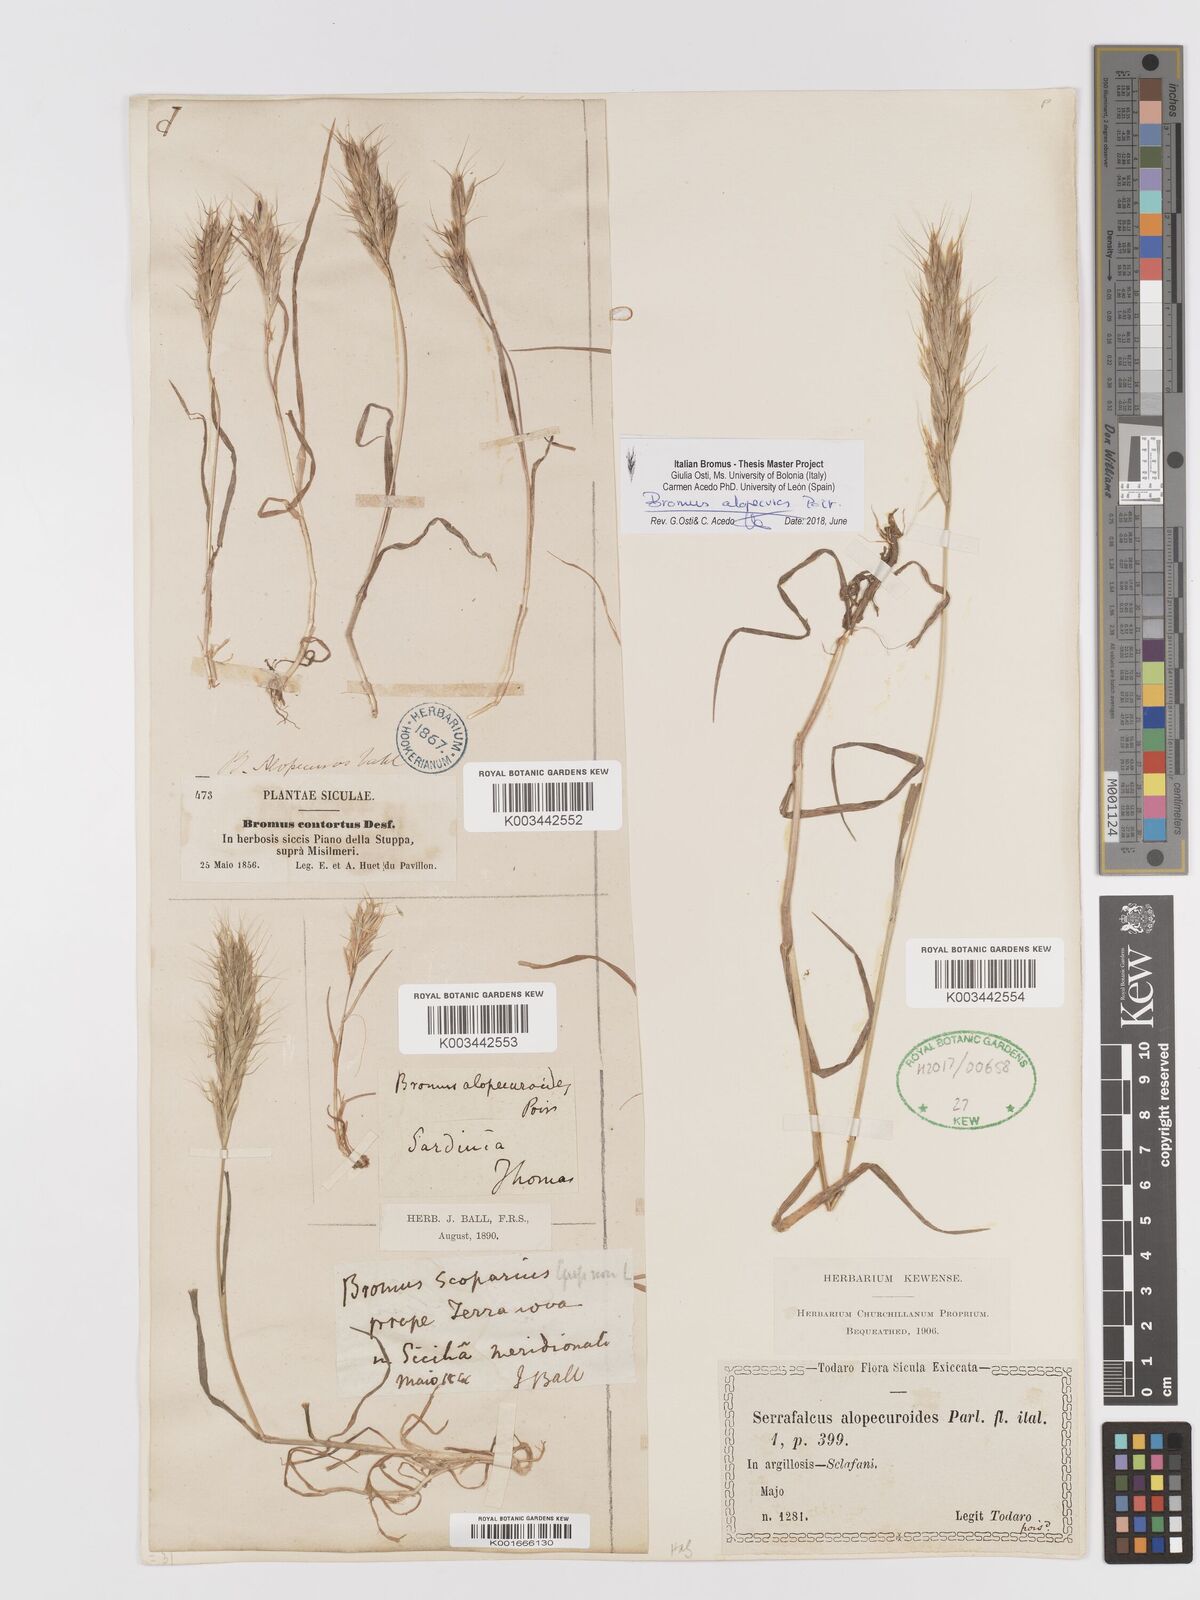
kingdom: Plantae
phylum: Tracheophyta
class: Liliopsida
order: Poales
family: Poaceae
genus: Bromus
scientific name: Bromus alopecuros
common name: Weedy brome
